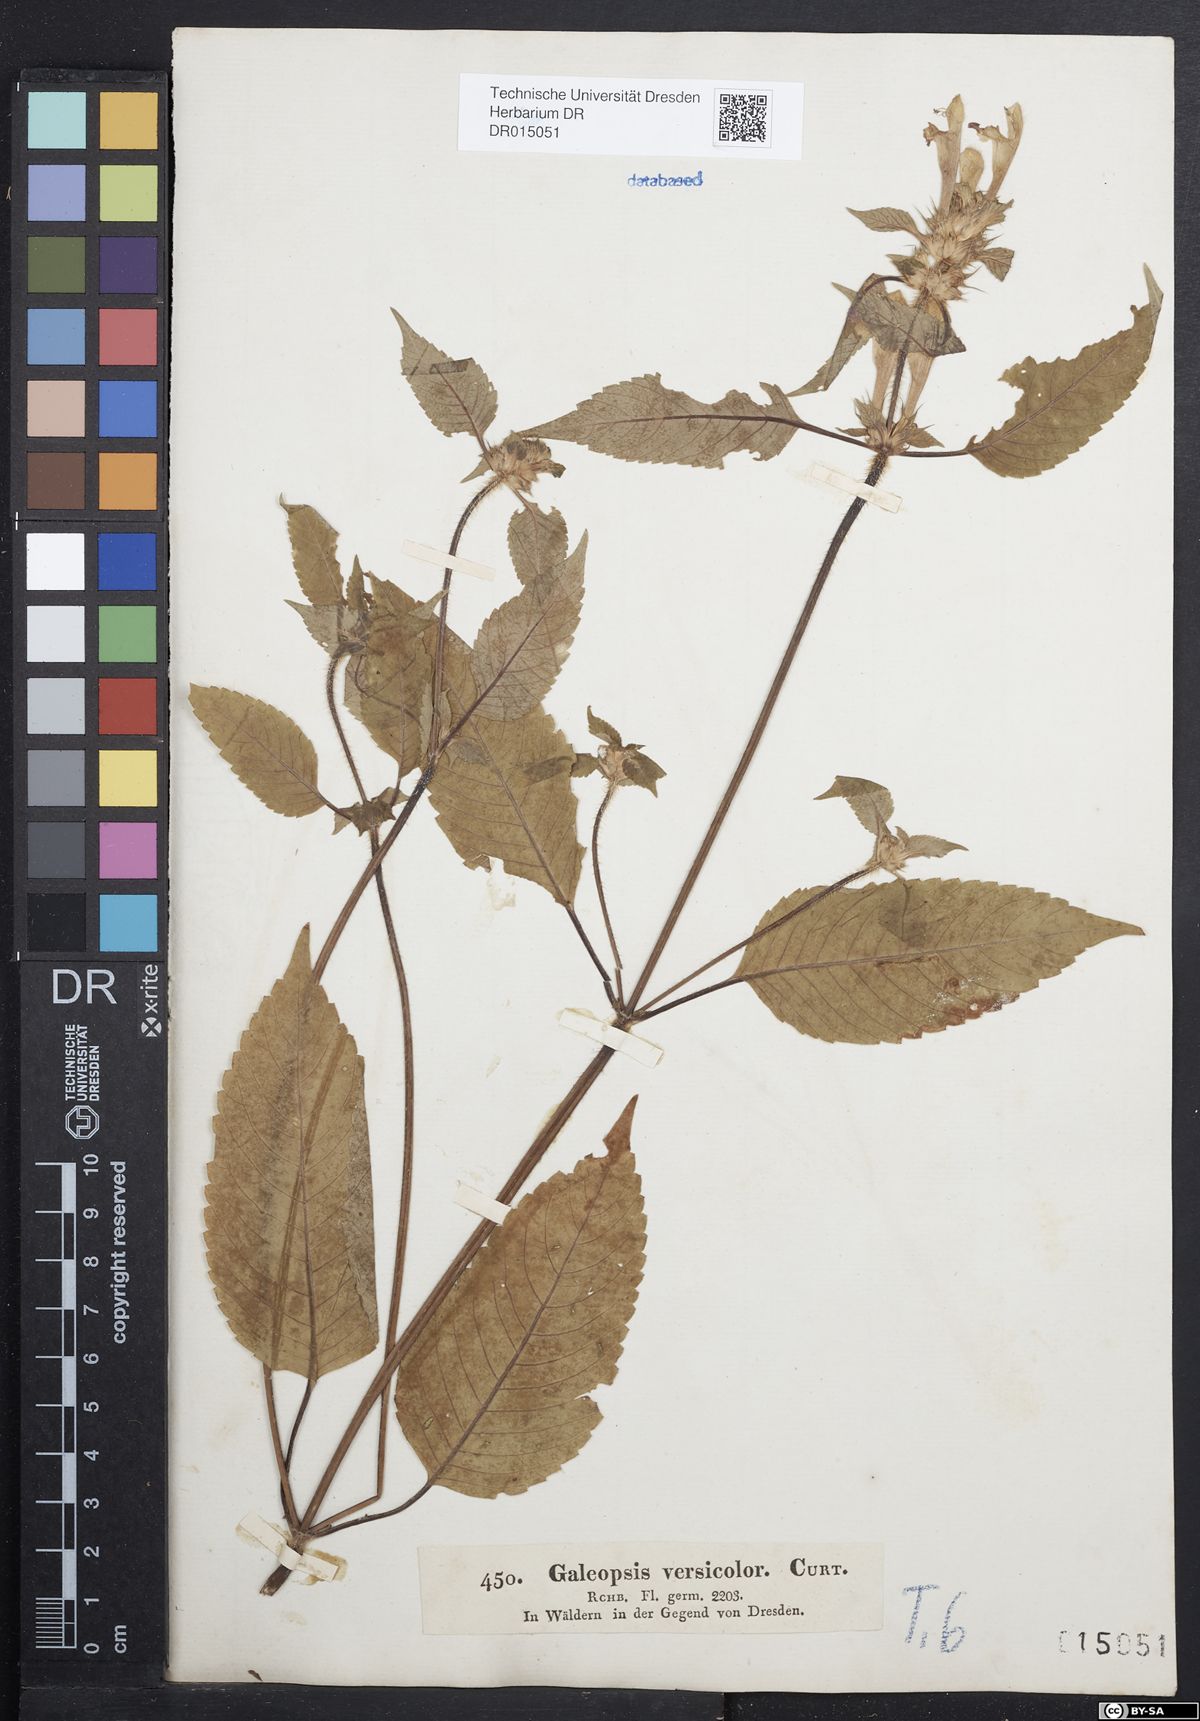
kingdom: Plantae
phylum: Tracheophyta
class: Magnoliopsida
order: Lamiales
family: Lamiaceae
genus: Galeopsis
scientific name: Galeopsis speciosa
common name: Large-flowered hemp-nettle
